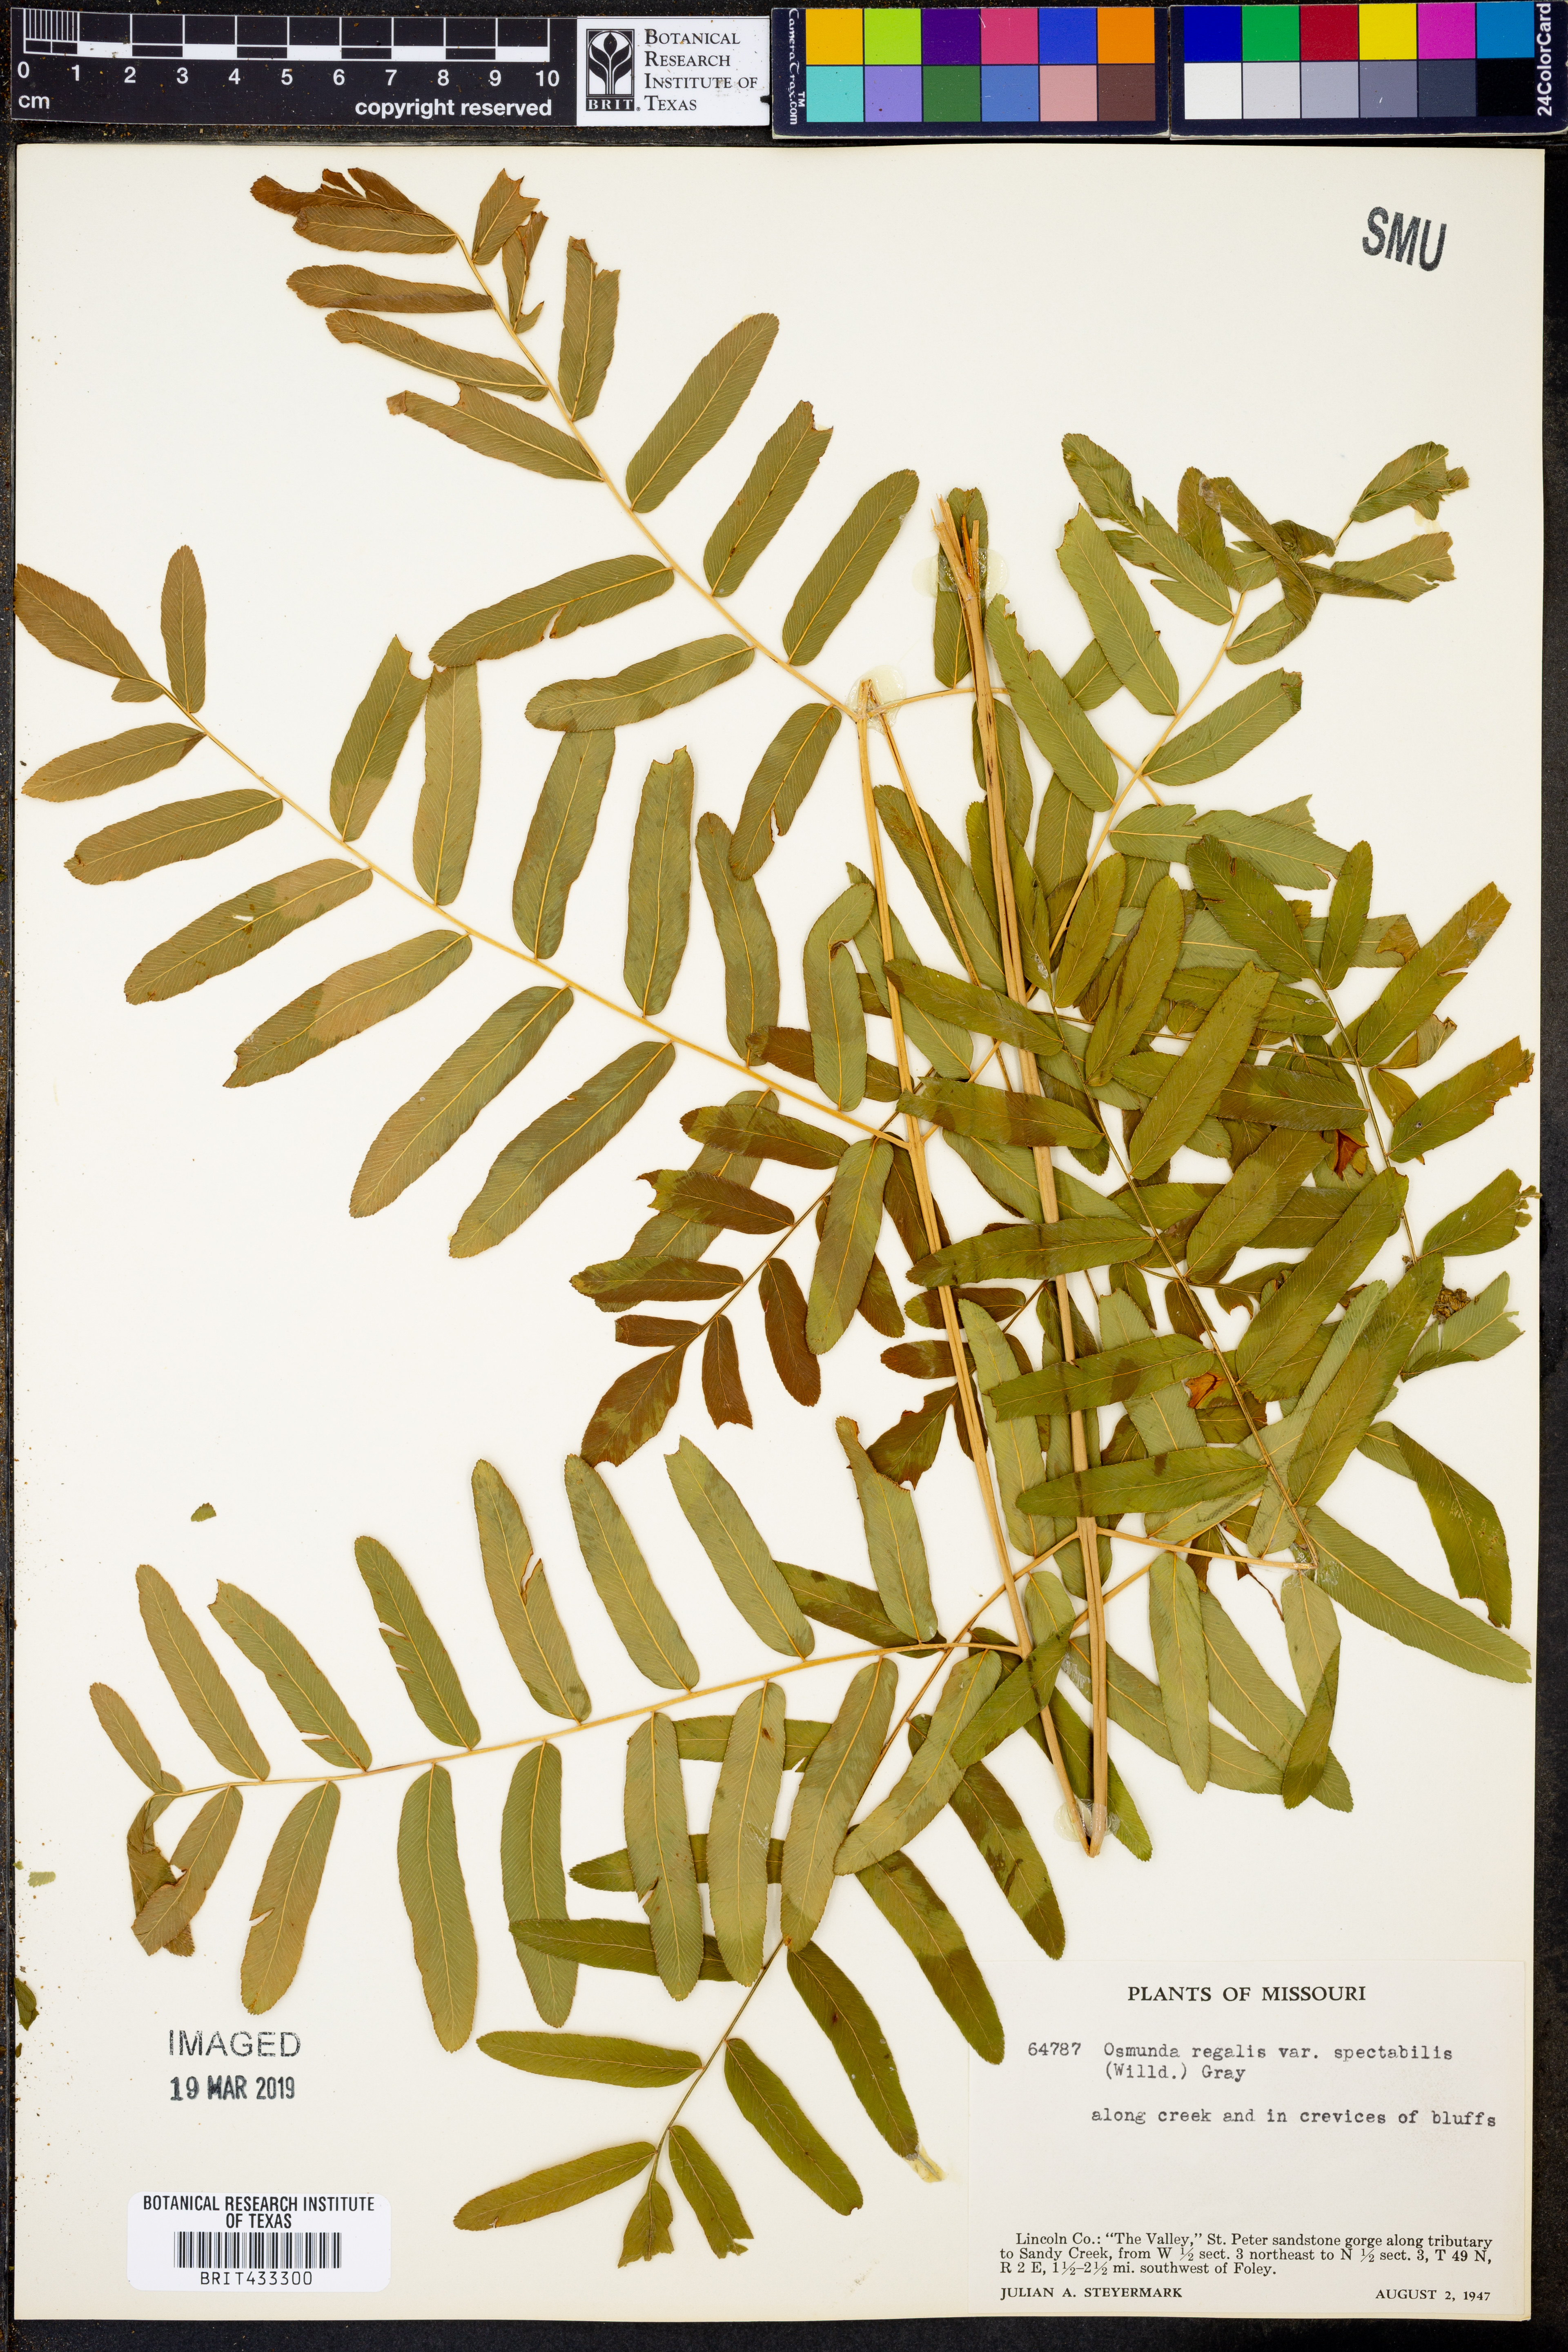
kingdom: Plantae
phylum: Tracheophyta
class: Polypodiopsida
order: Osmundales
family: Osmundaceae
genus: Osmunda
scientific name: Osmunda spectabilis
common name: American royal fern
